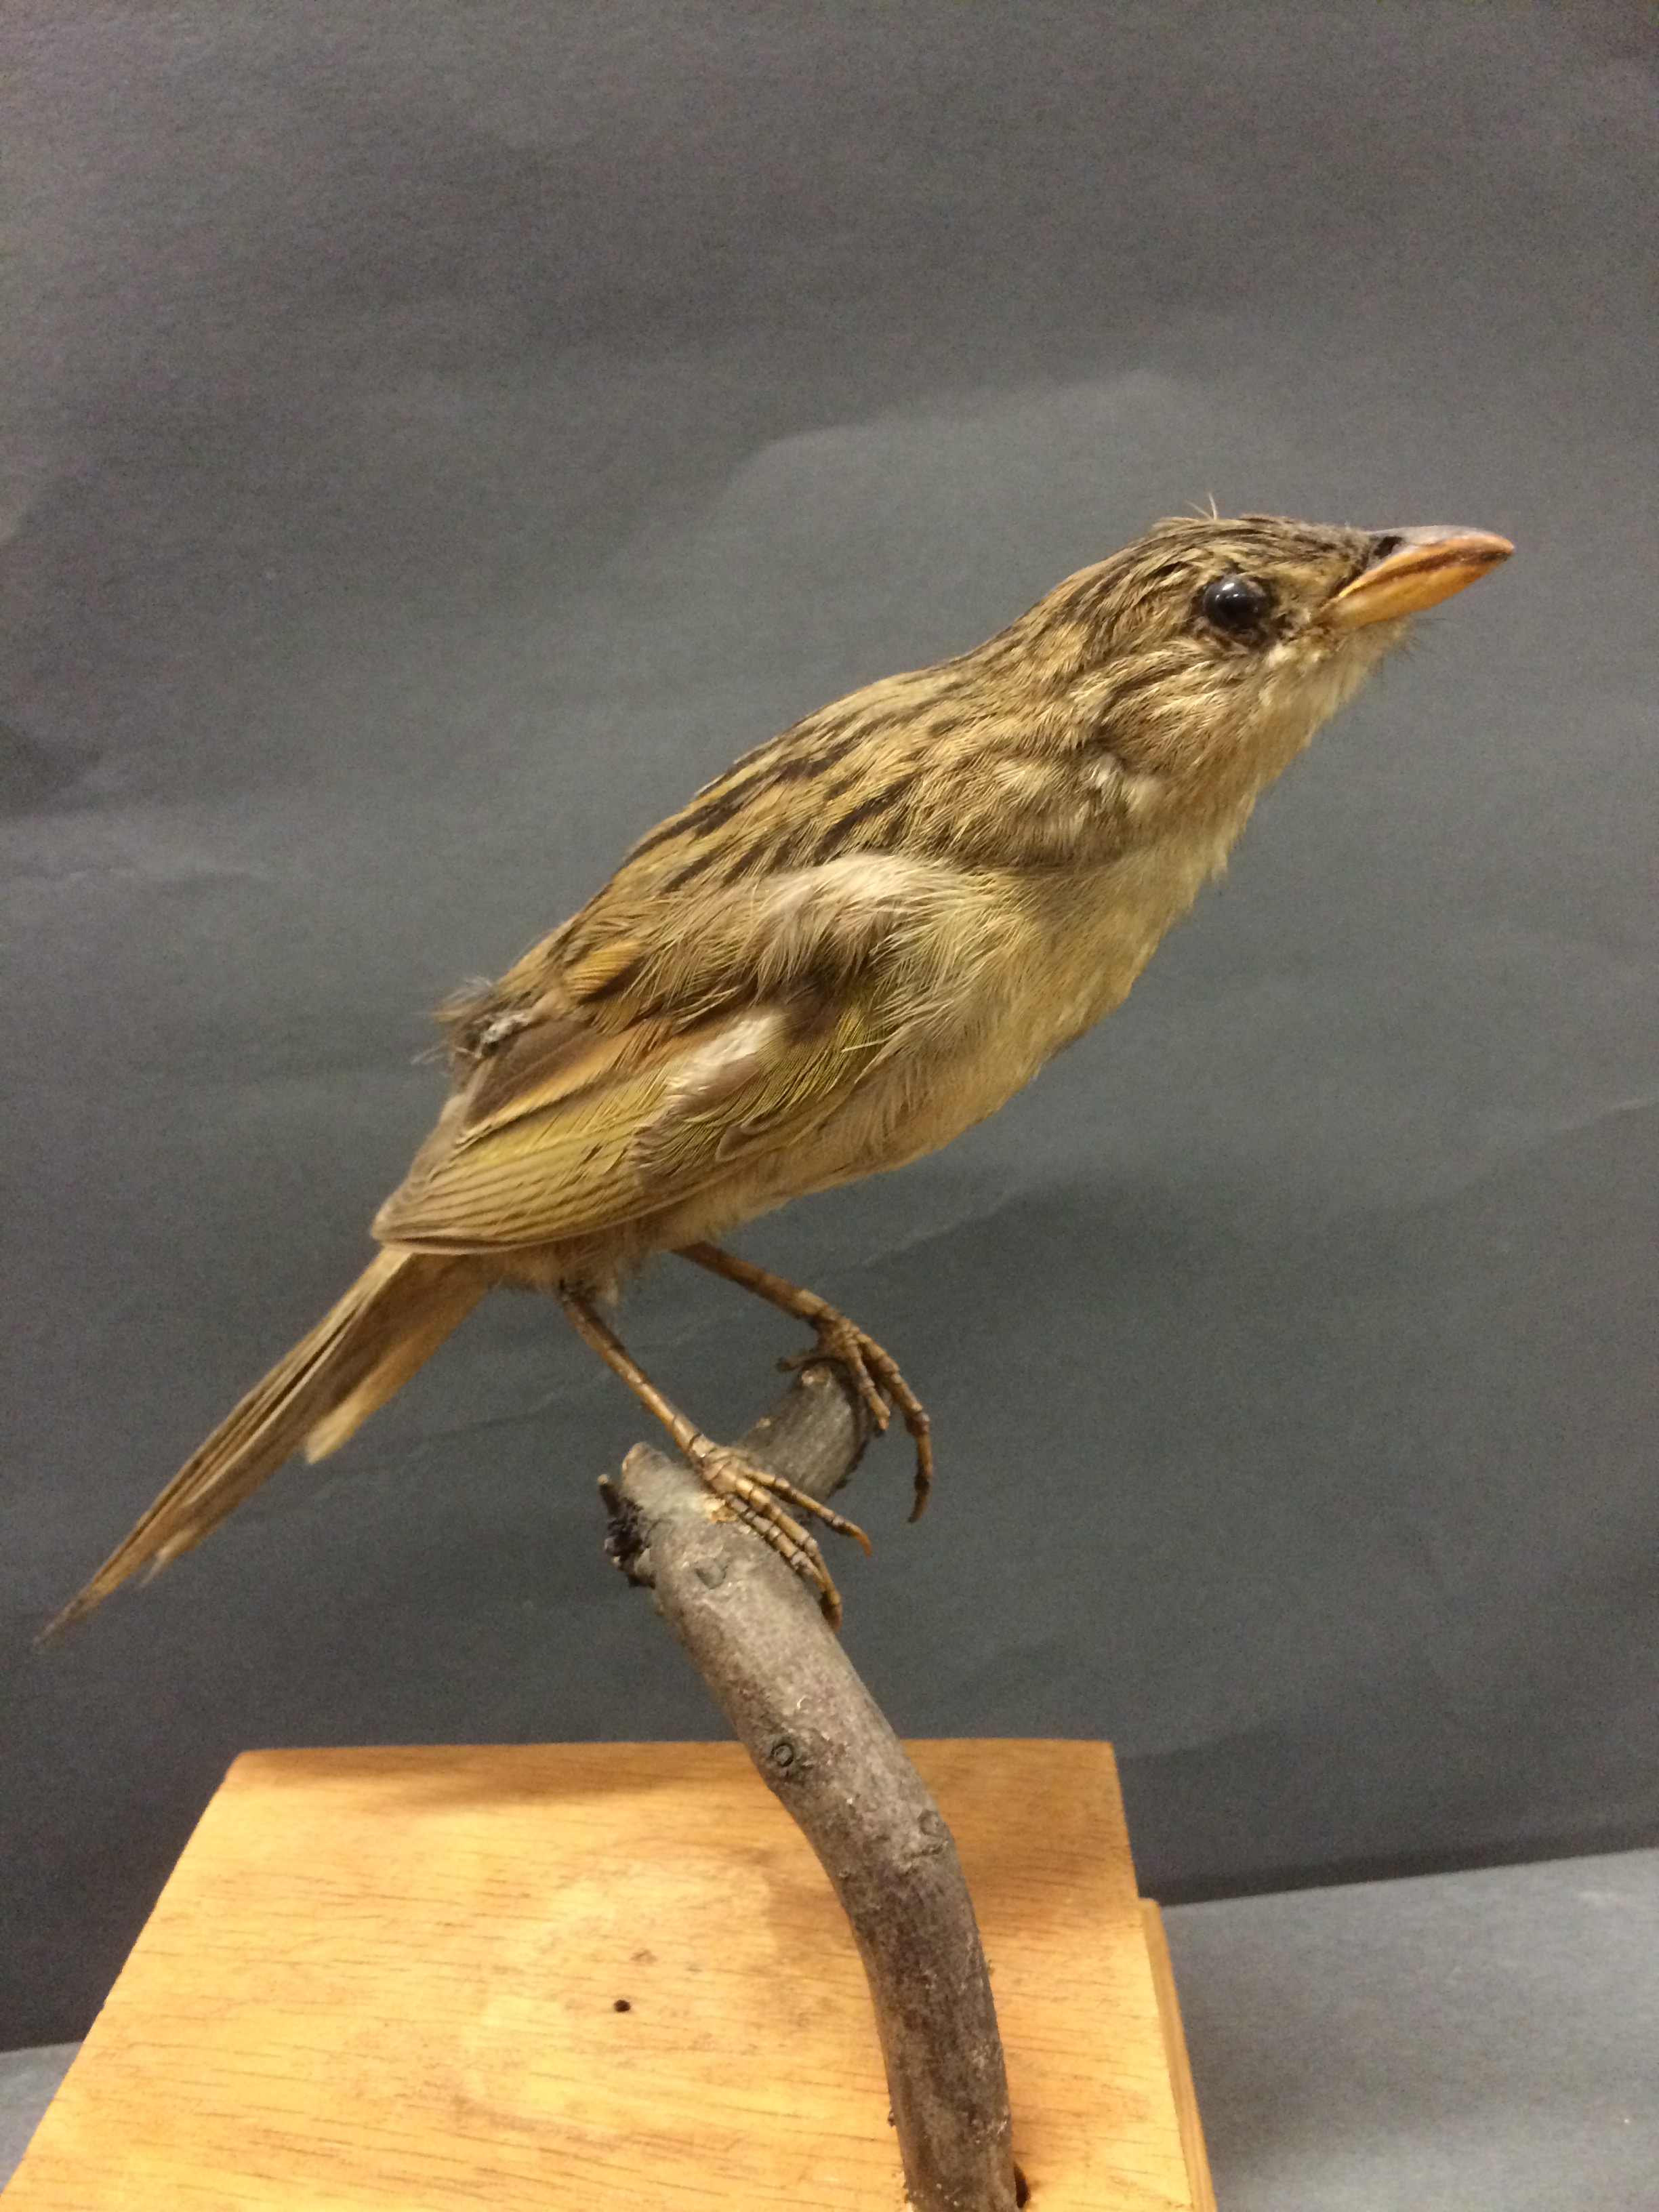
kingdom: Animalia
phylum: Chordata
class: Aves
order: Passeriformes
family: Thraupidae
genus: Emberizoides
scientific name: Emberizoides herbicola
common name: Wedge-tailed grass-finch
